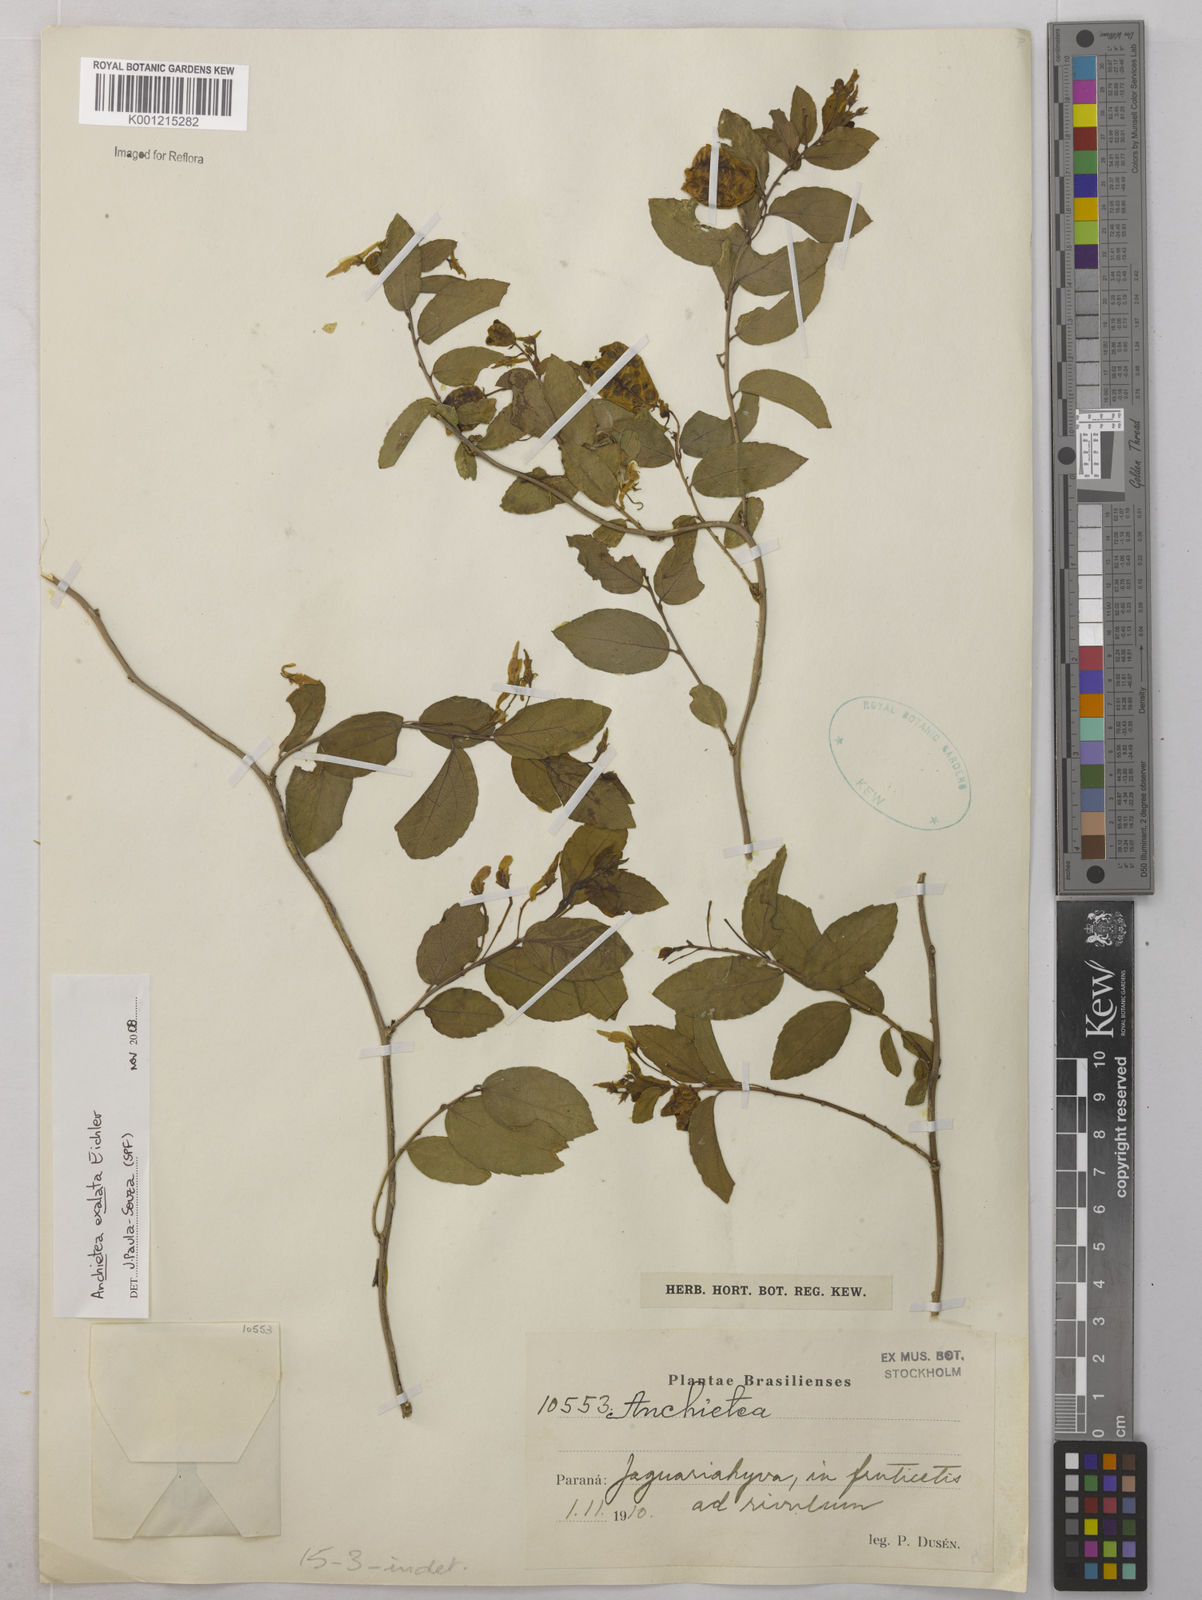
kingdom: Plantae
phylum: Tracheophyta
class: Magnoliopsida
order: Malpighiales
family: Violaceae
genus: Anchietea
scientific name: Anchietea exaltata
